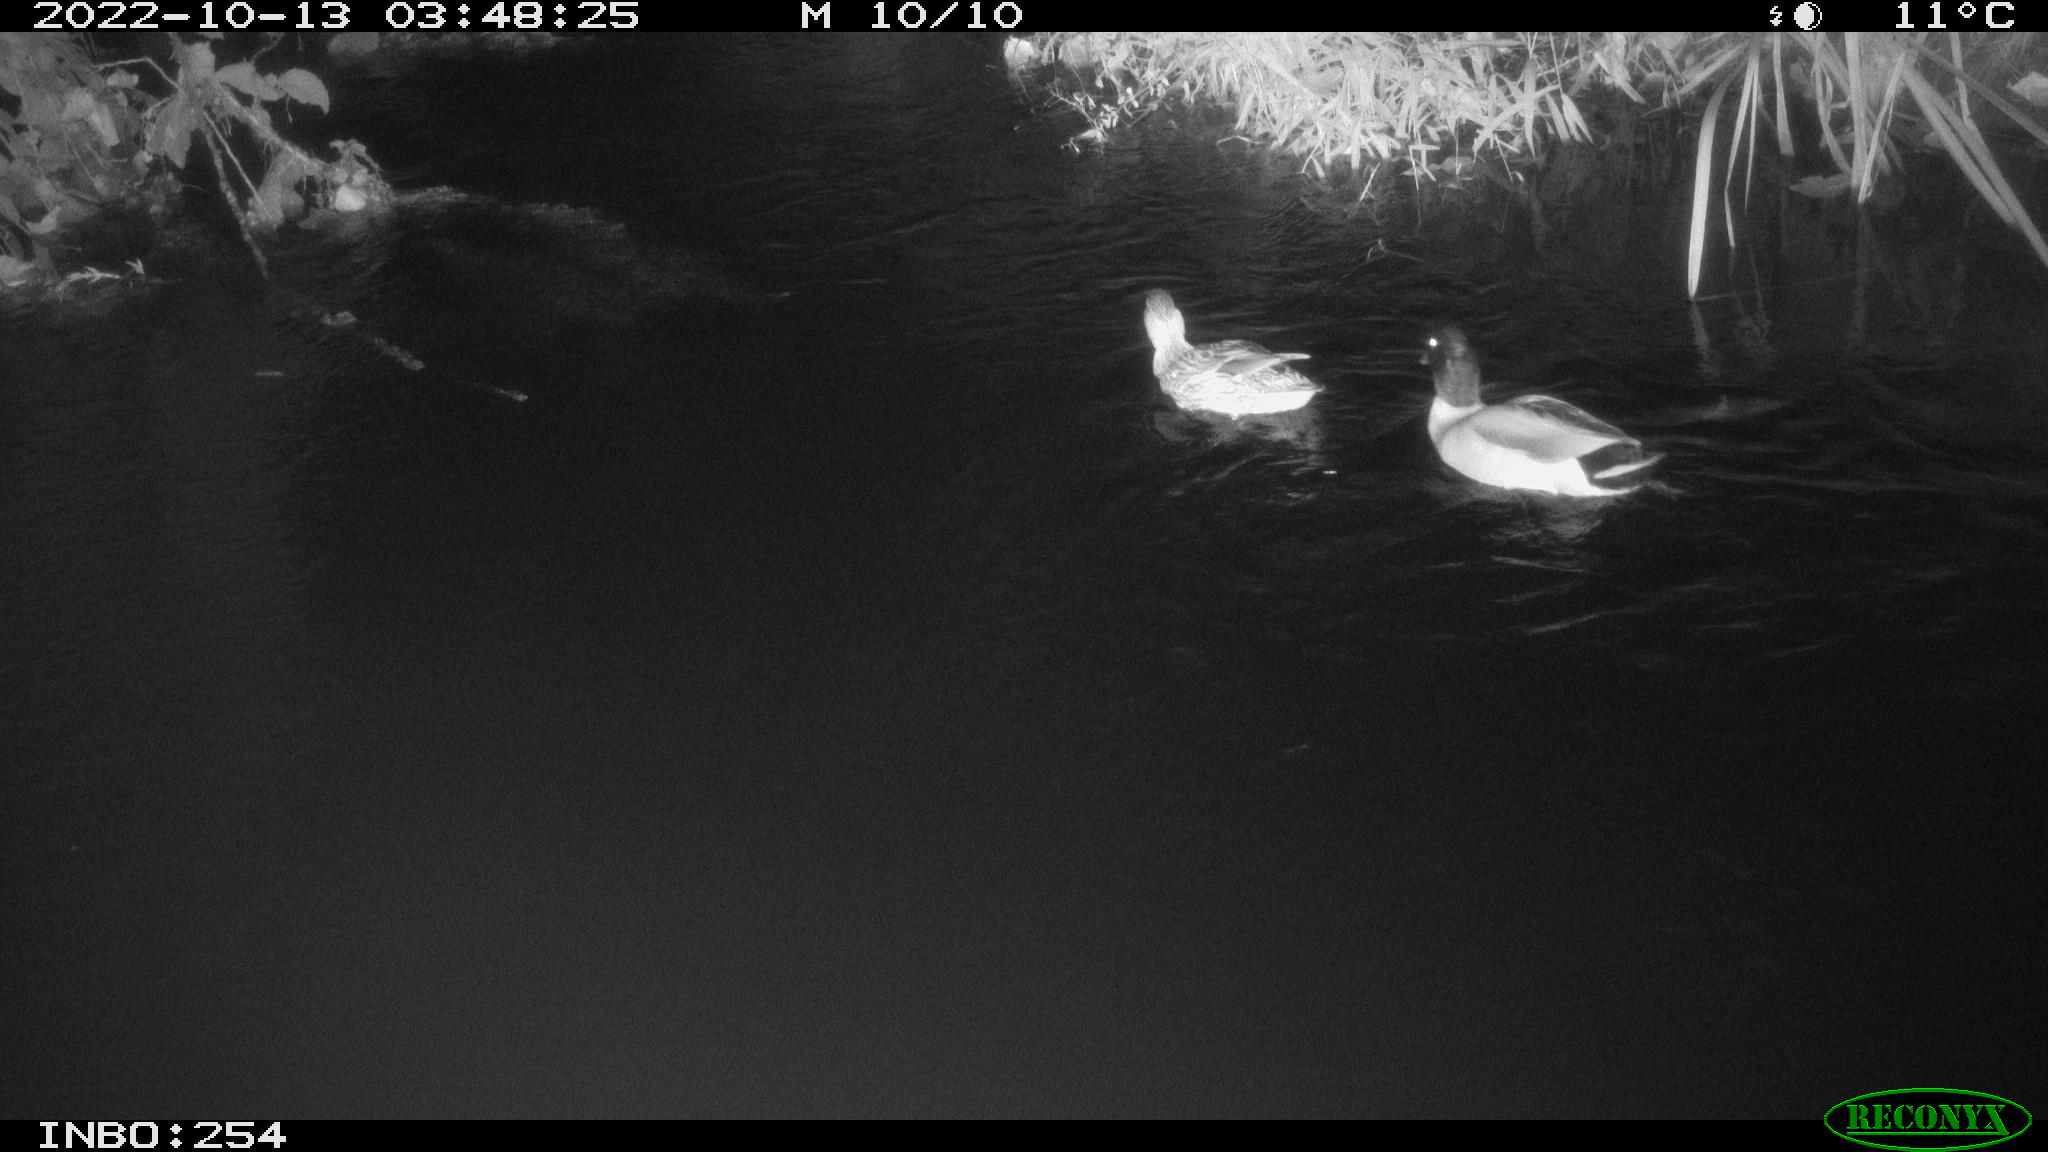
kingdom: Animalia
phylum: Chordata
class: Aves
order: Anseriformes
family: Anatidae
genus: Anas
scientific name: Anas
